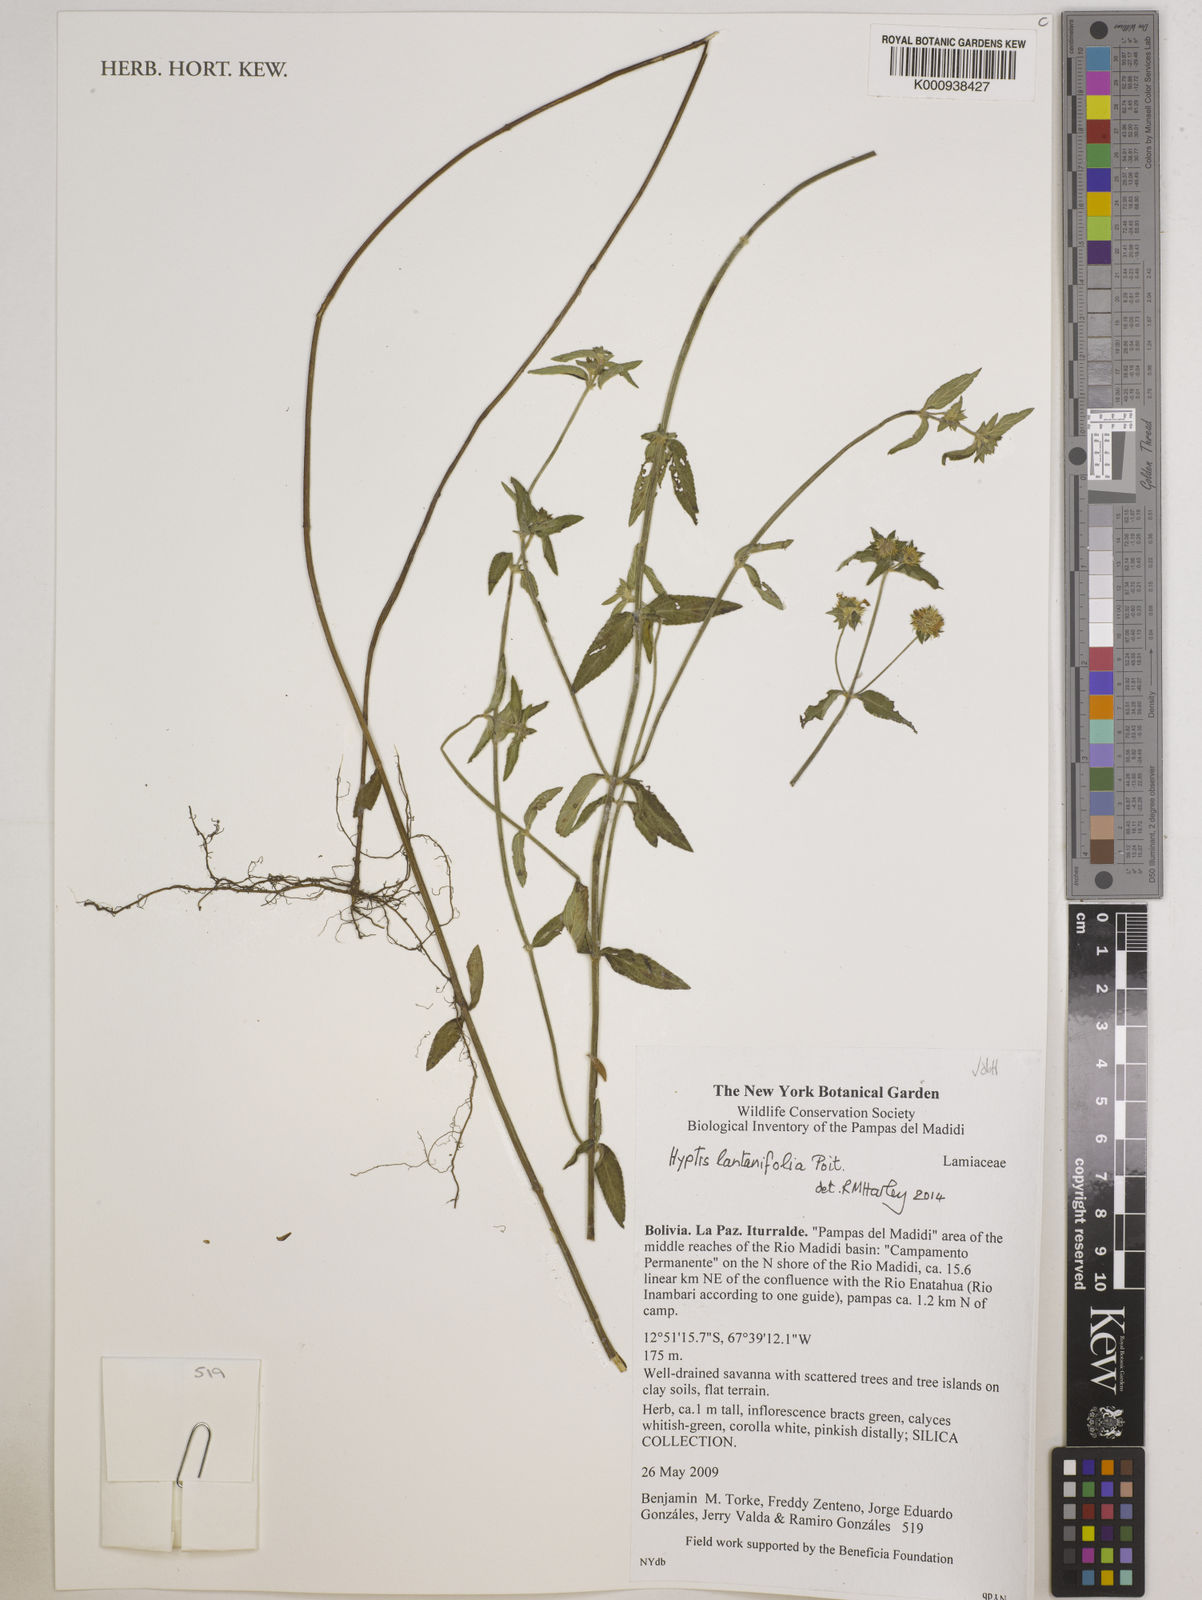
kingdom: Plantae
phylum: Tracheophyta
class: Magnoliopsida
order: Lamiales
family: Lamiaceae
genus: Hyptis
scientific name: Hyptis lantanifolia
